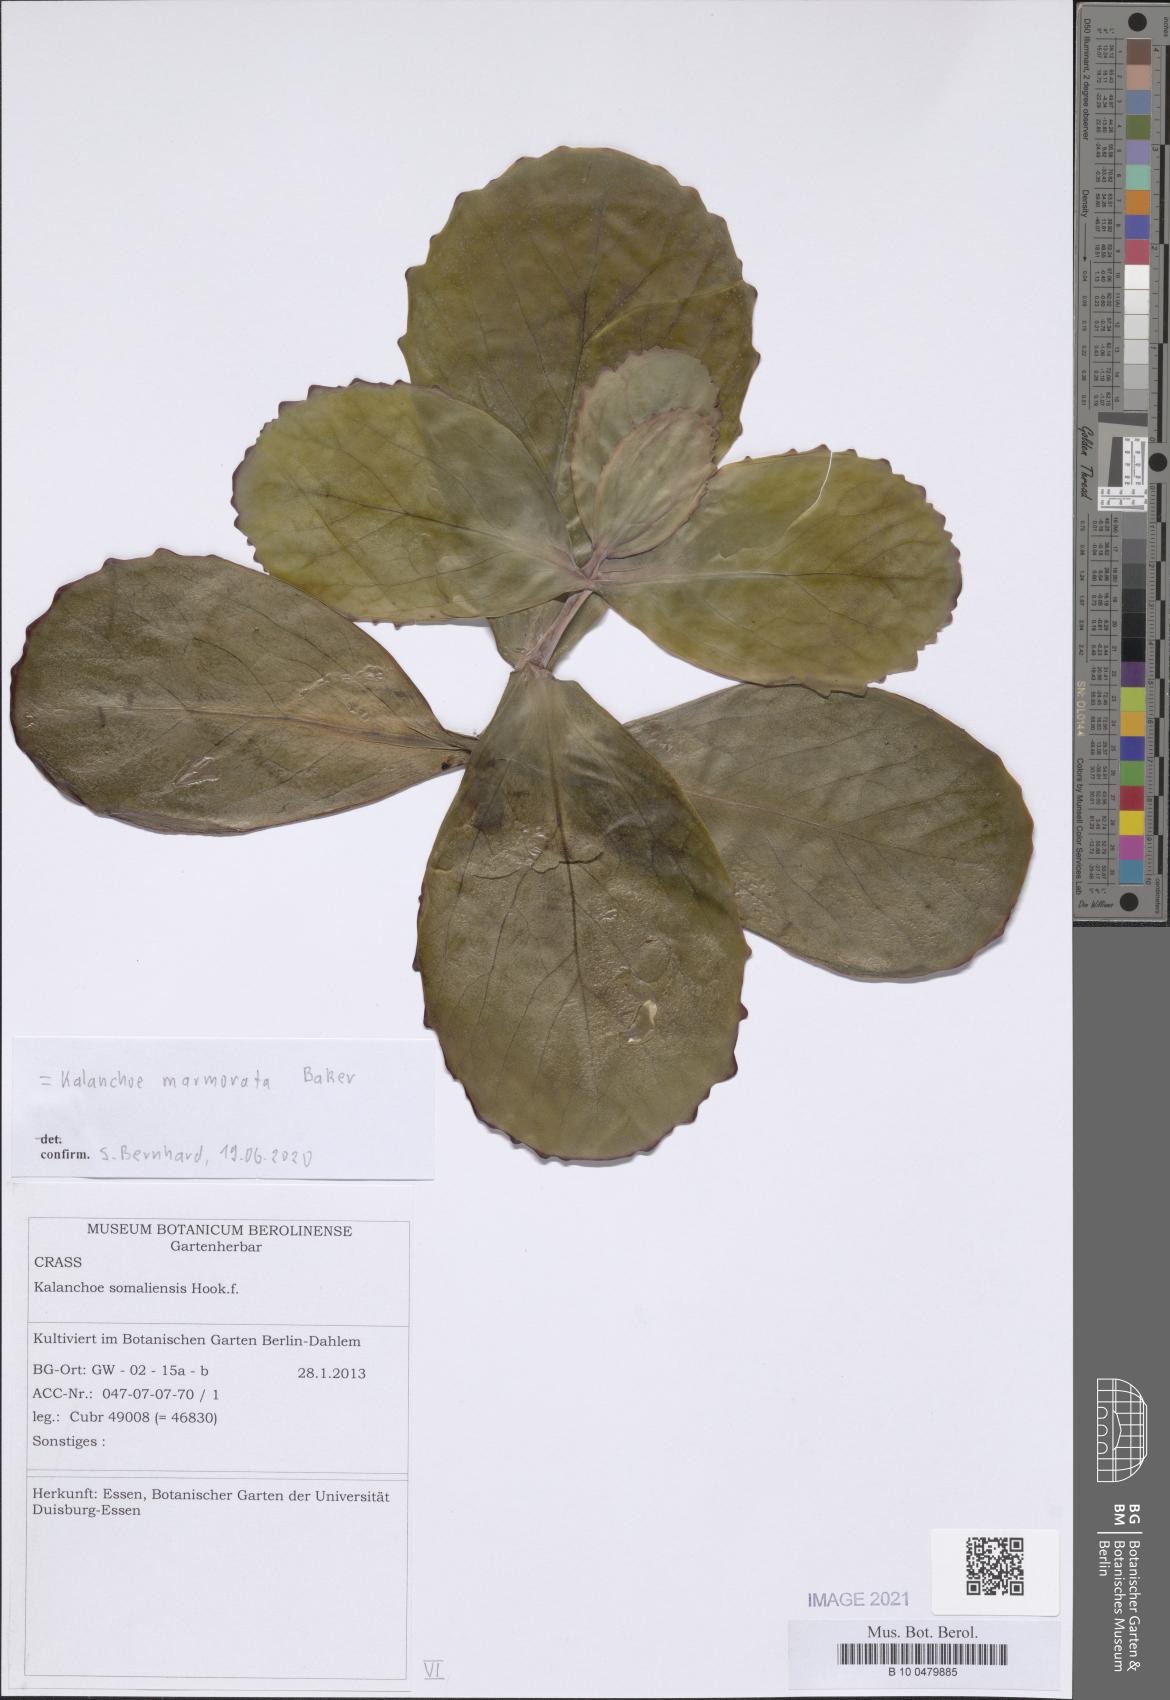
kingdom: Plantae
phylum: Tracheophyta
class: Magnoliopsida
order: Saxifragales
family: Crassulaceae
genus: Kalanchoe
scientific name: Kalanchoe marmorata
